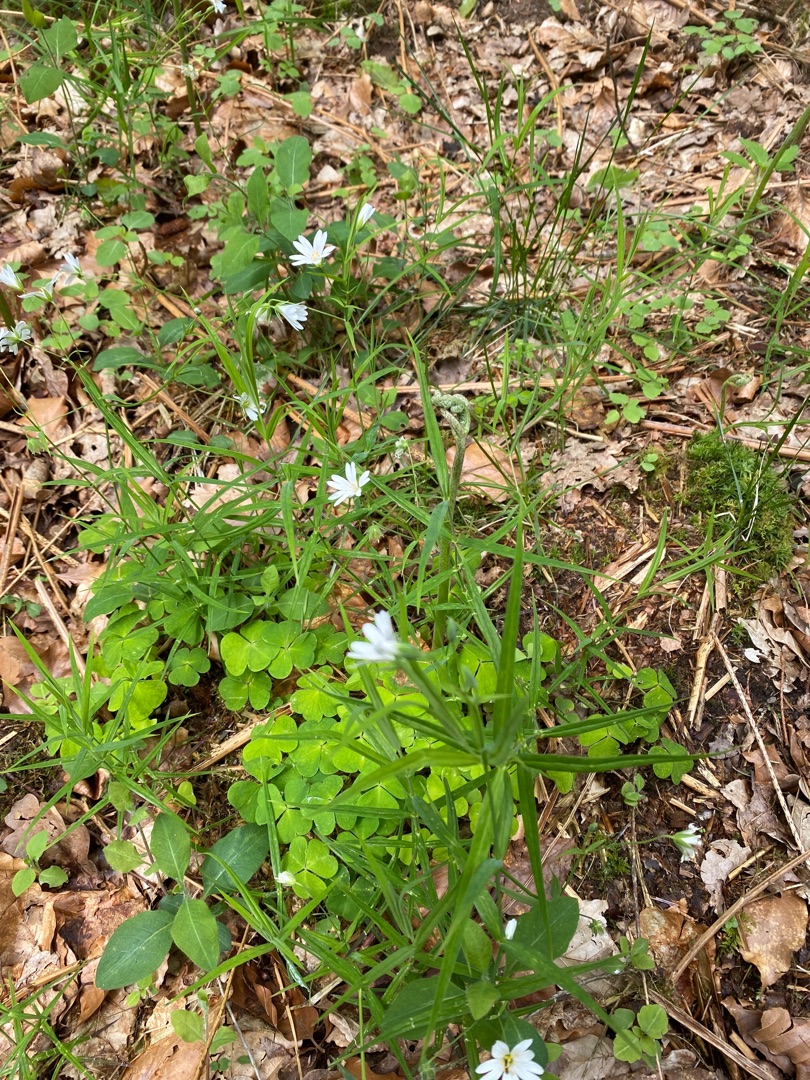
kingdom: Plantae
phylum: Tracheophyta
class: Magnoliopsida
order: Caryophyllales
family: Caryophyllaceae
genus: Rabelera
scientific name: Rabelera holostea
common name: Stor fladstjerne
